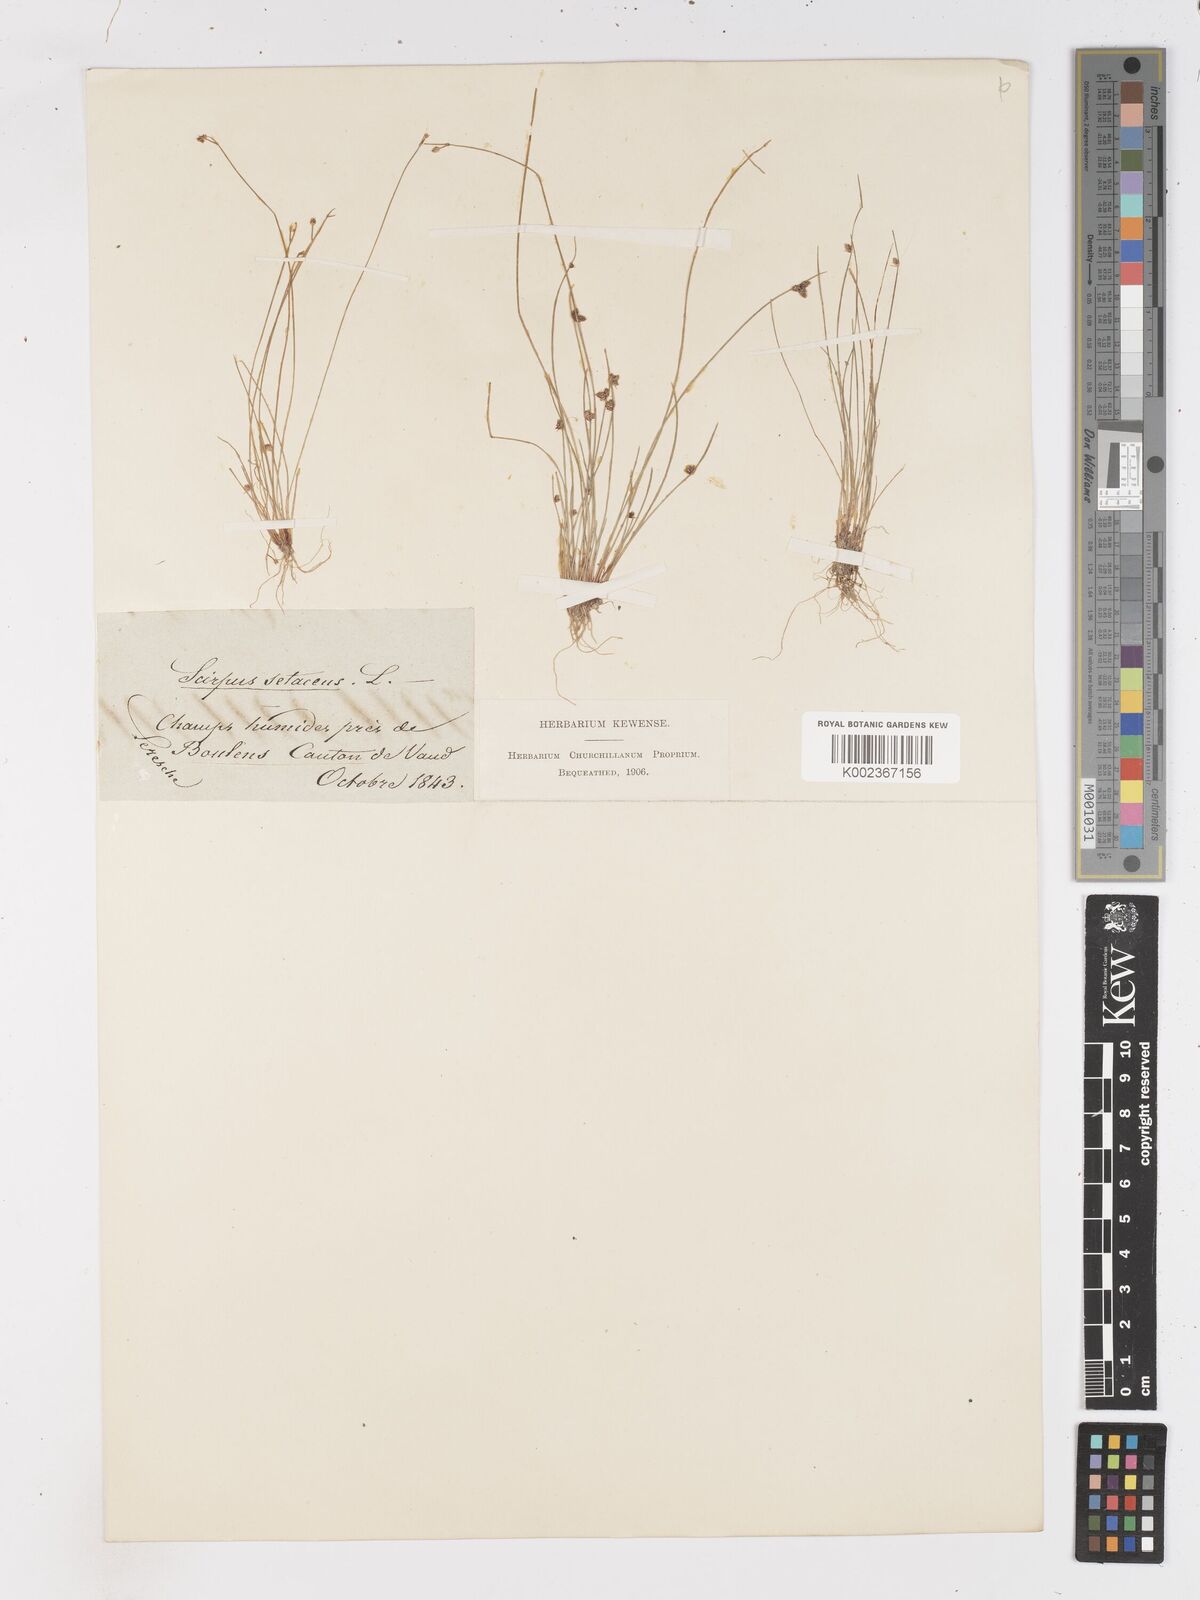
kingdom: Plantae
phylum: Tracheophyta
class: Liliopsida
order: Poales
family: Cyperaceae
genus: Isolepis
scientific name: Isolepis setacea
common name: Bristle club-rush
